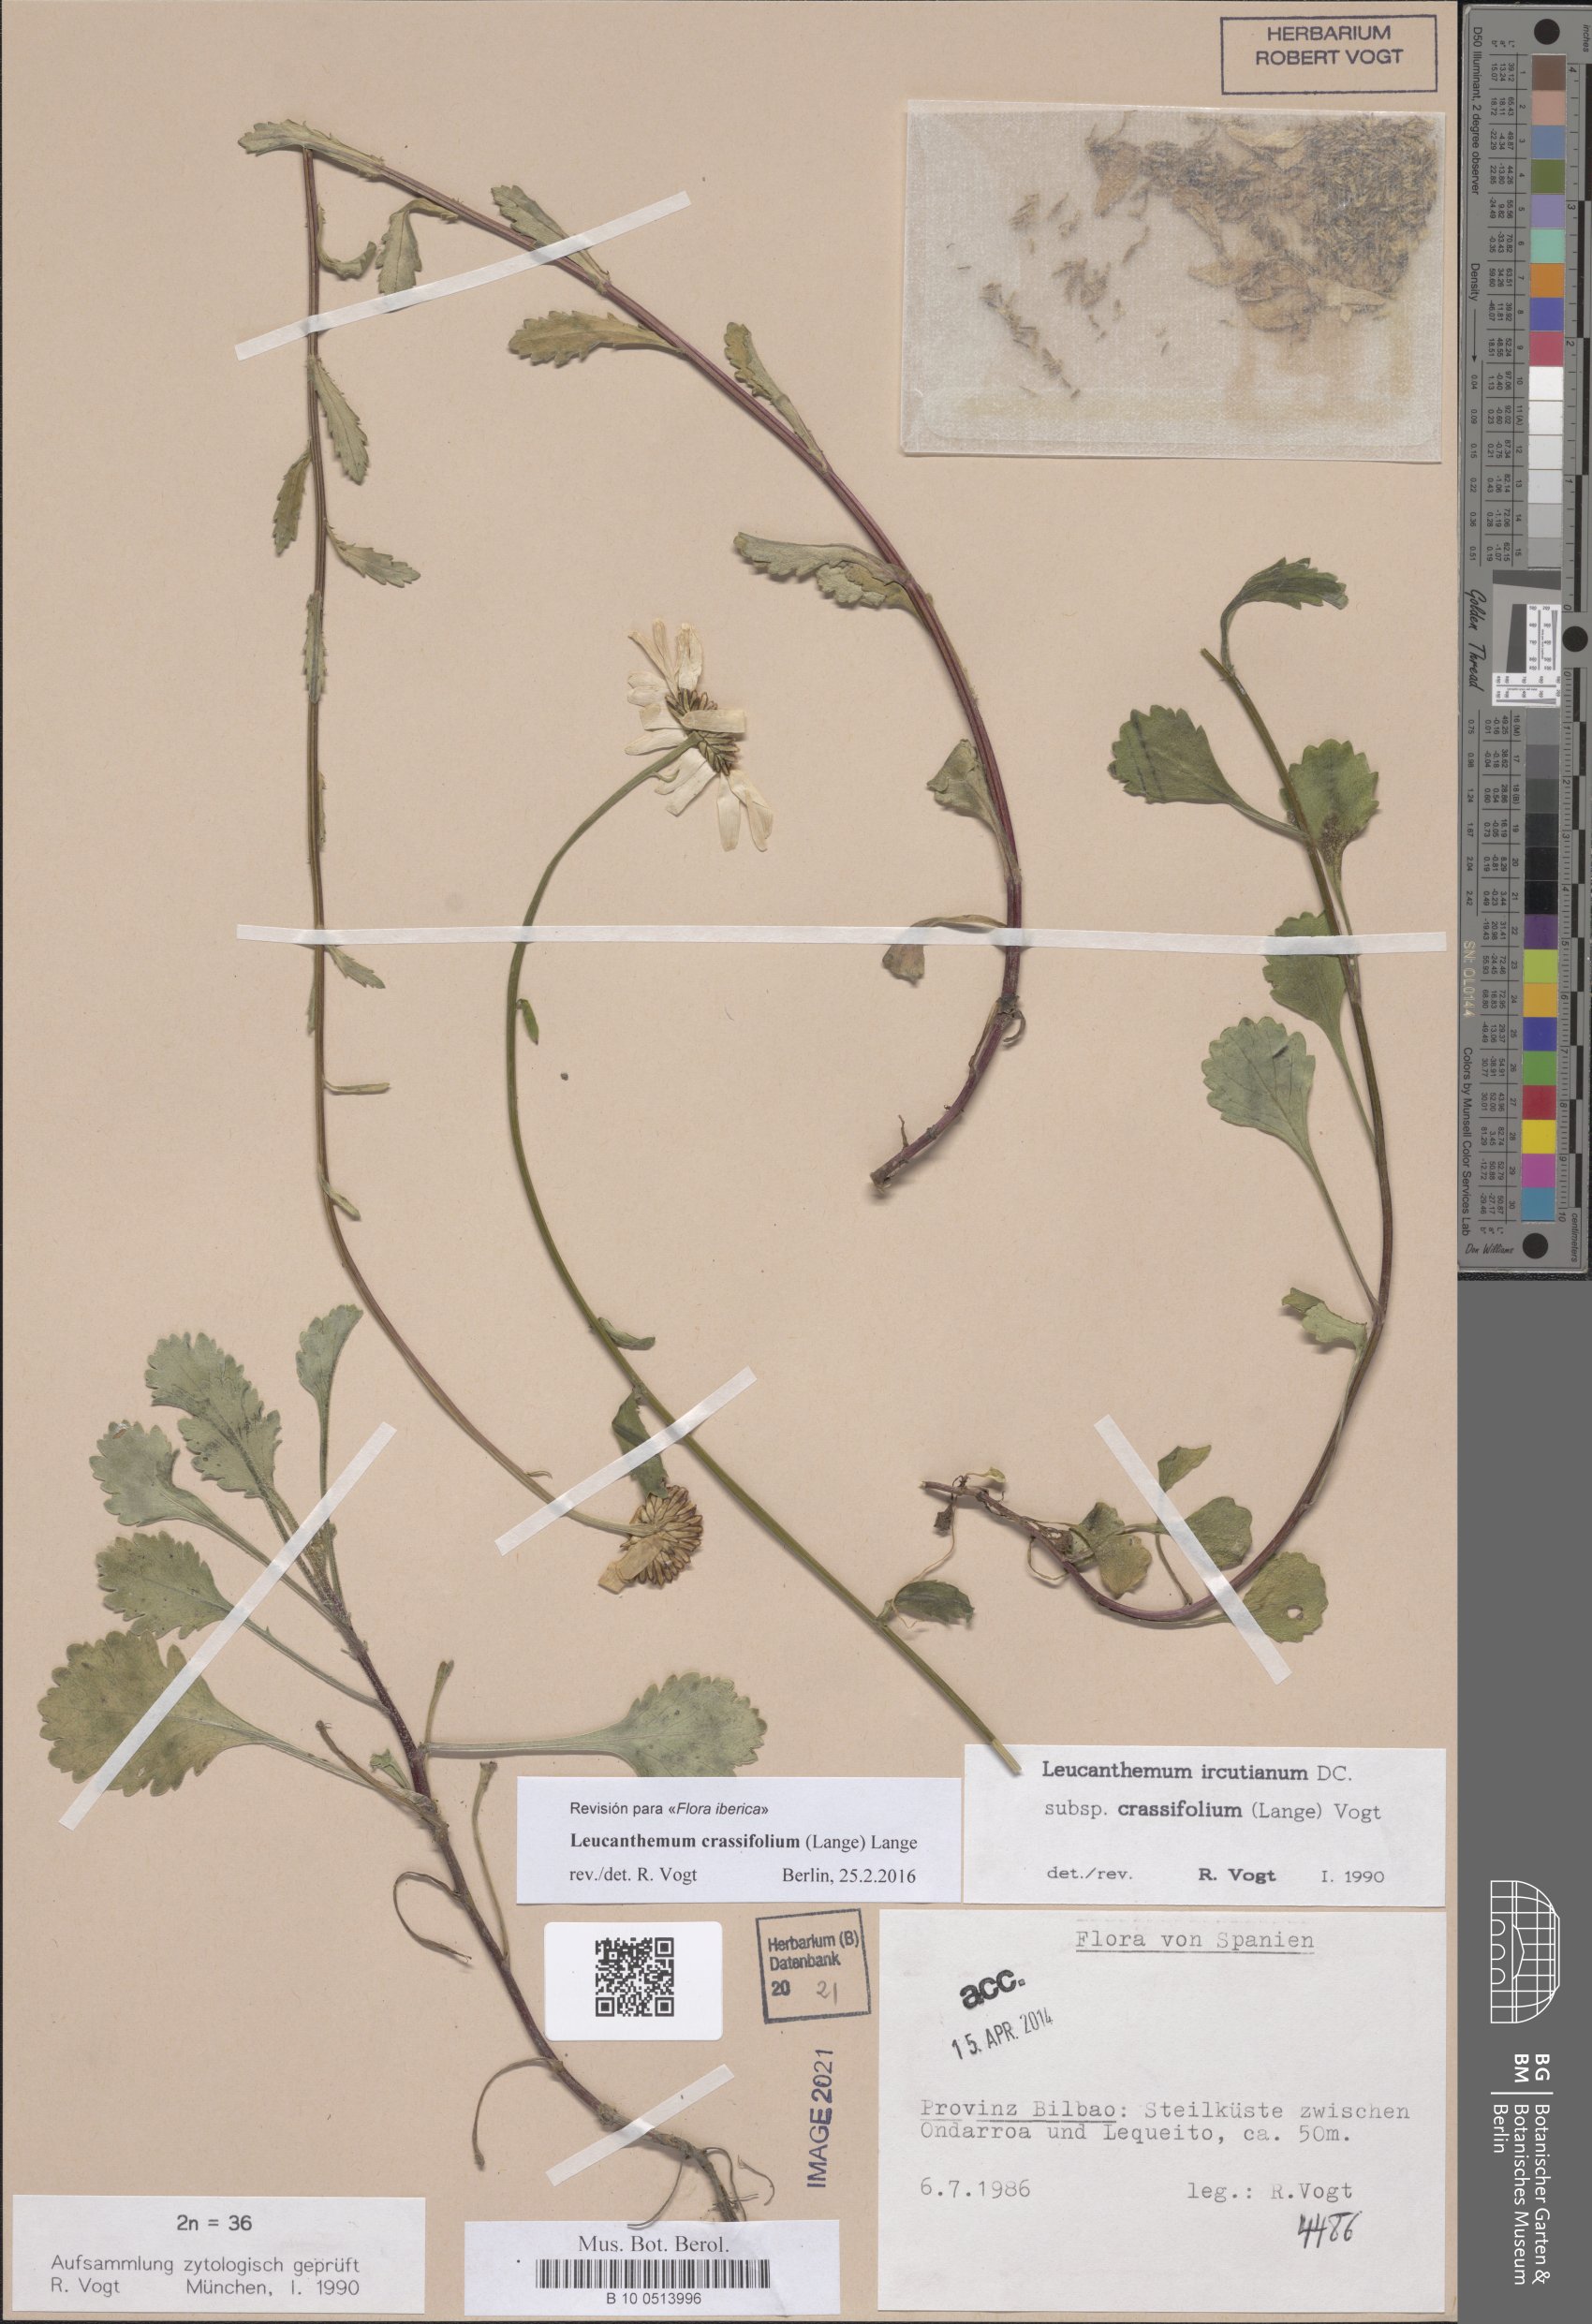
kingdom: Plantae
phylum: Tracheophyta
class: Magnoliopsida
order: Asterales
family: Asteraceae
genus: Leucanthemum
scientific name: Leucanthemum crassifolium
